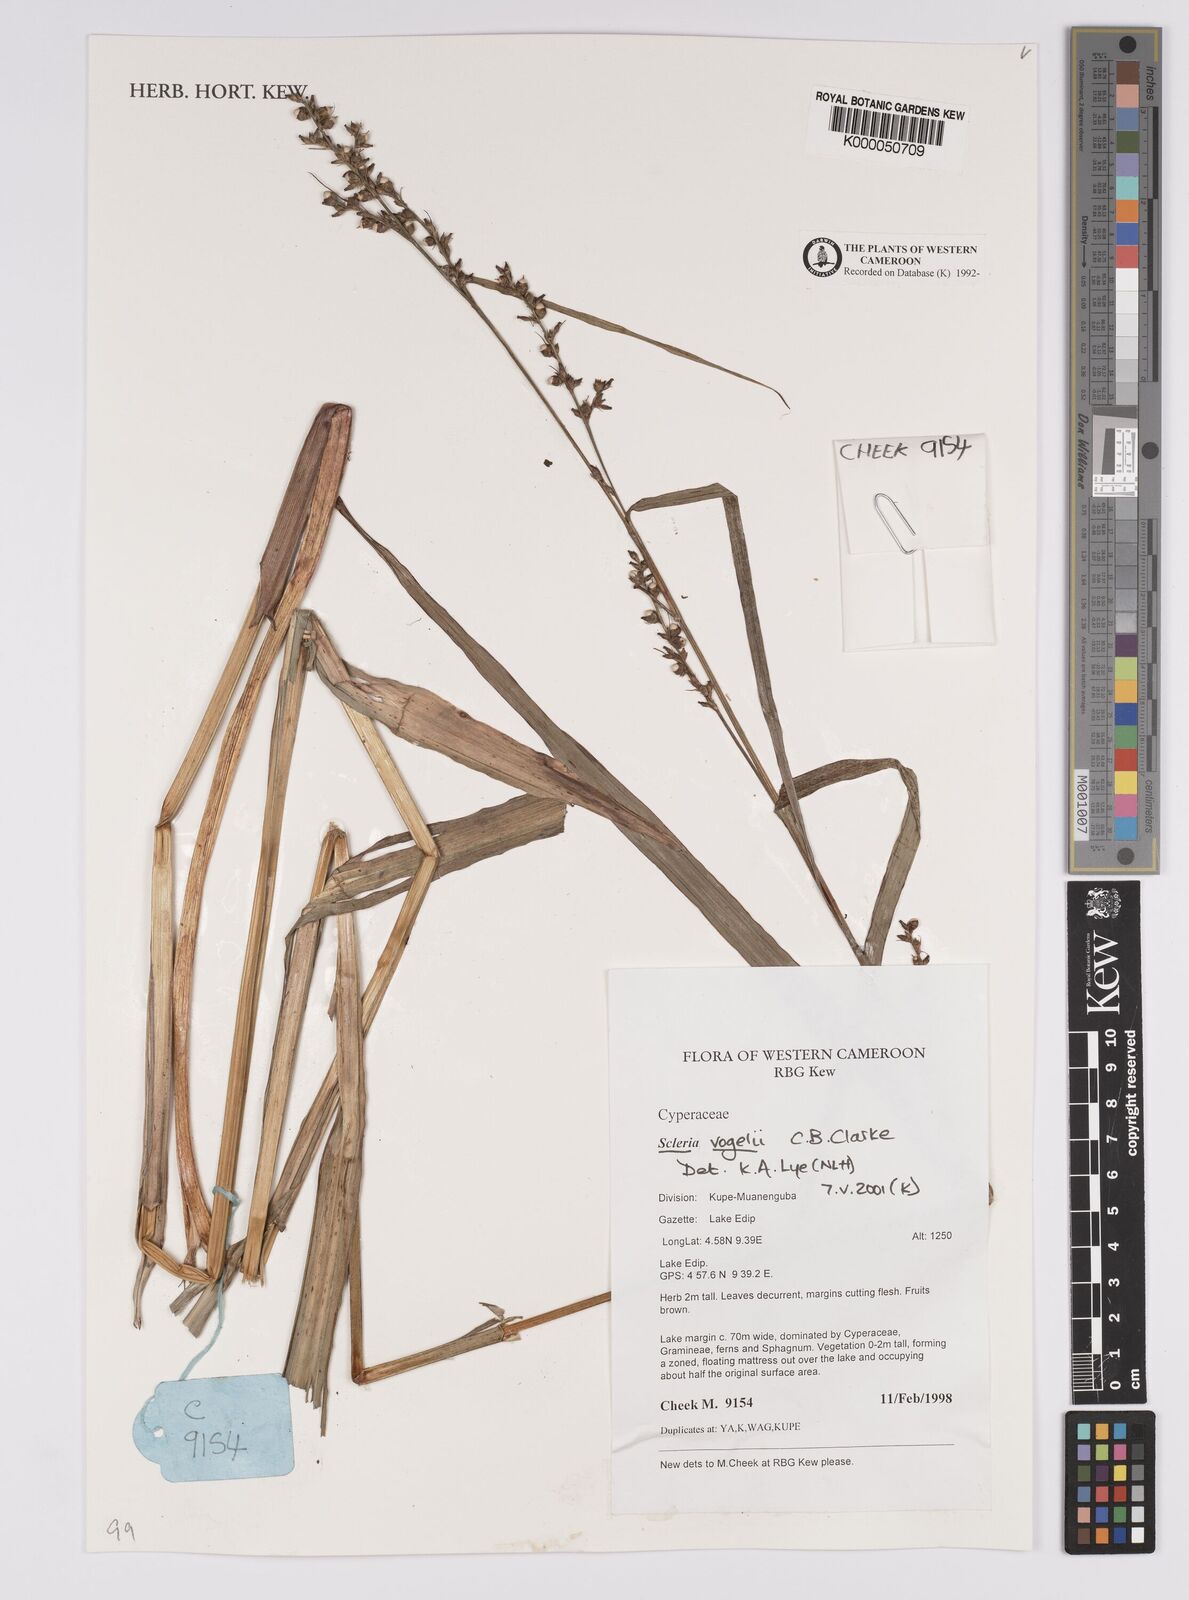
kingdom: Plantae
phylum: Tracheophyta
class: Liliopsida
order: Poales
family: Cyperaceae
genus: Scleria
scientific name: Scleria vogelii
